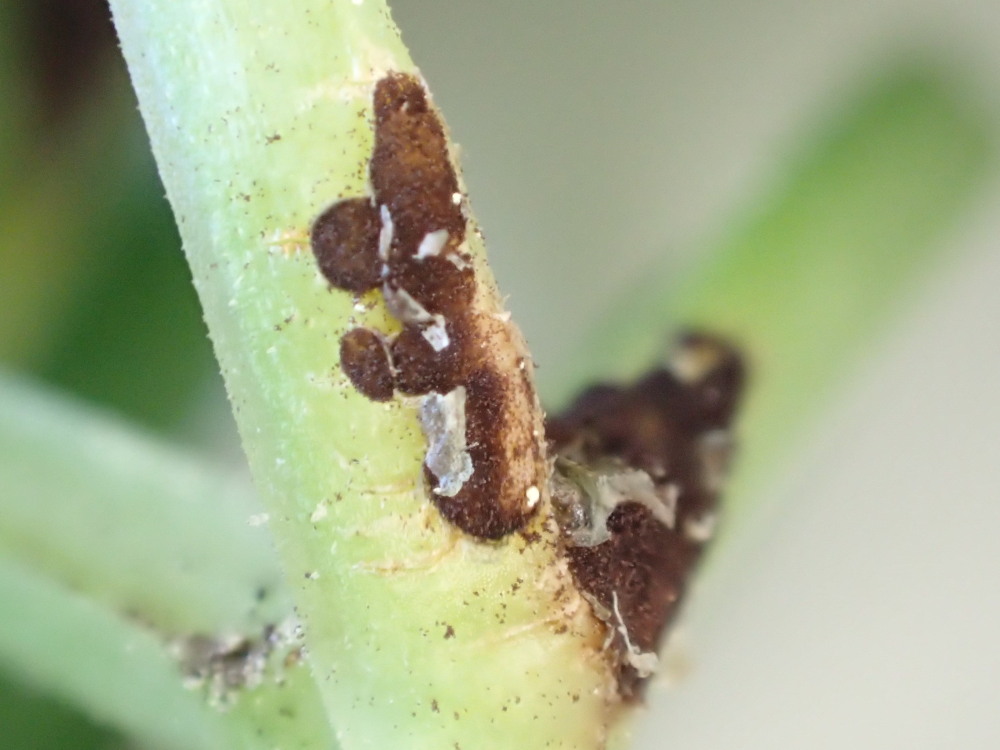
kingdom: Fungi
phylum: Basidiomycota
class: Pucciniomycetes
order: Pucciniales
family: Pucciniaceae
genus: Puccinia
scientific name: Puccinia
